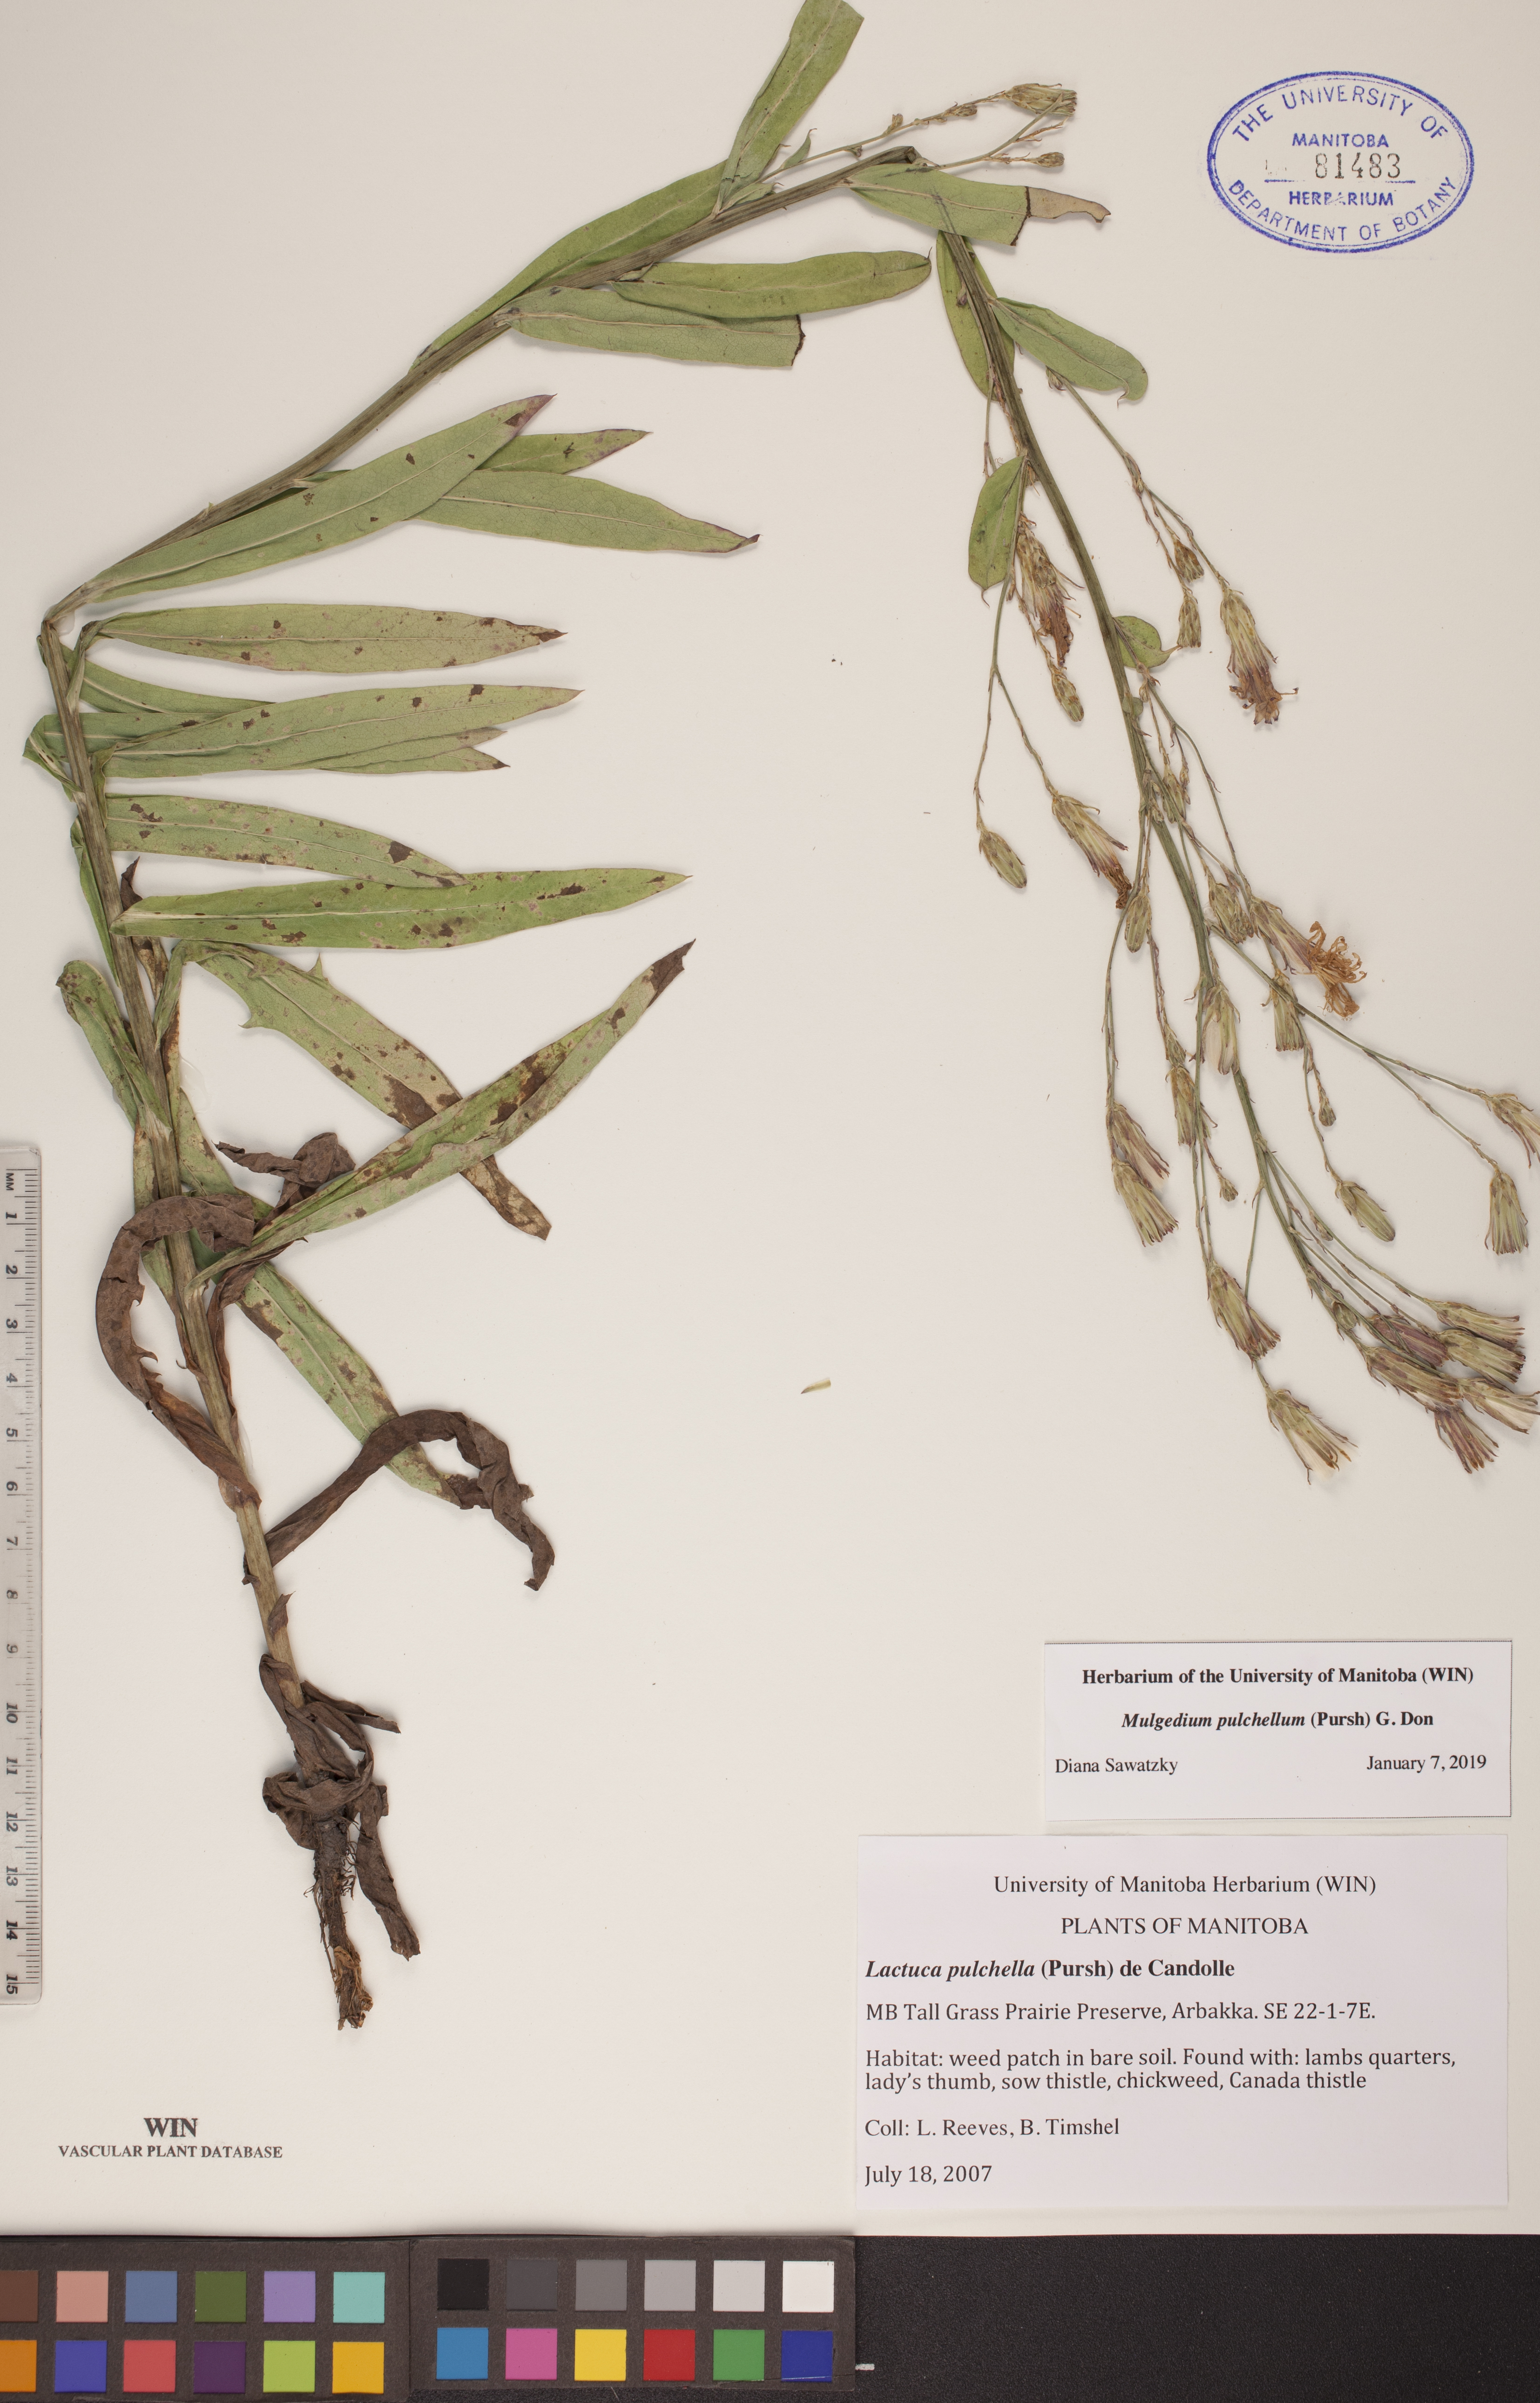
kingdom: Plantae
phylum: Tracheophyta
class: Magnoliopsida
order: Asterales
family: Asteraceae
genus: Lactuca
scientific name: Lactuca pulchella
